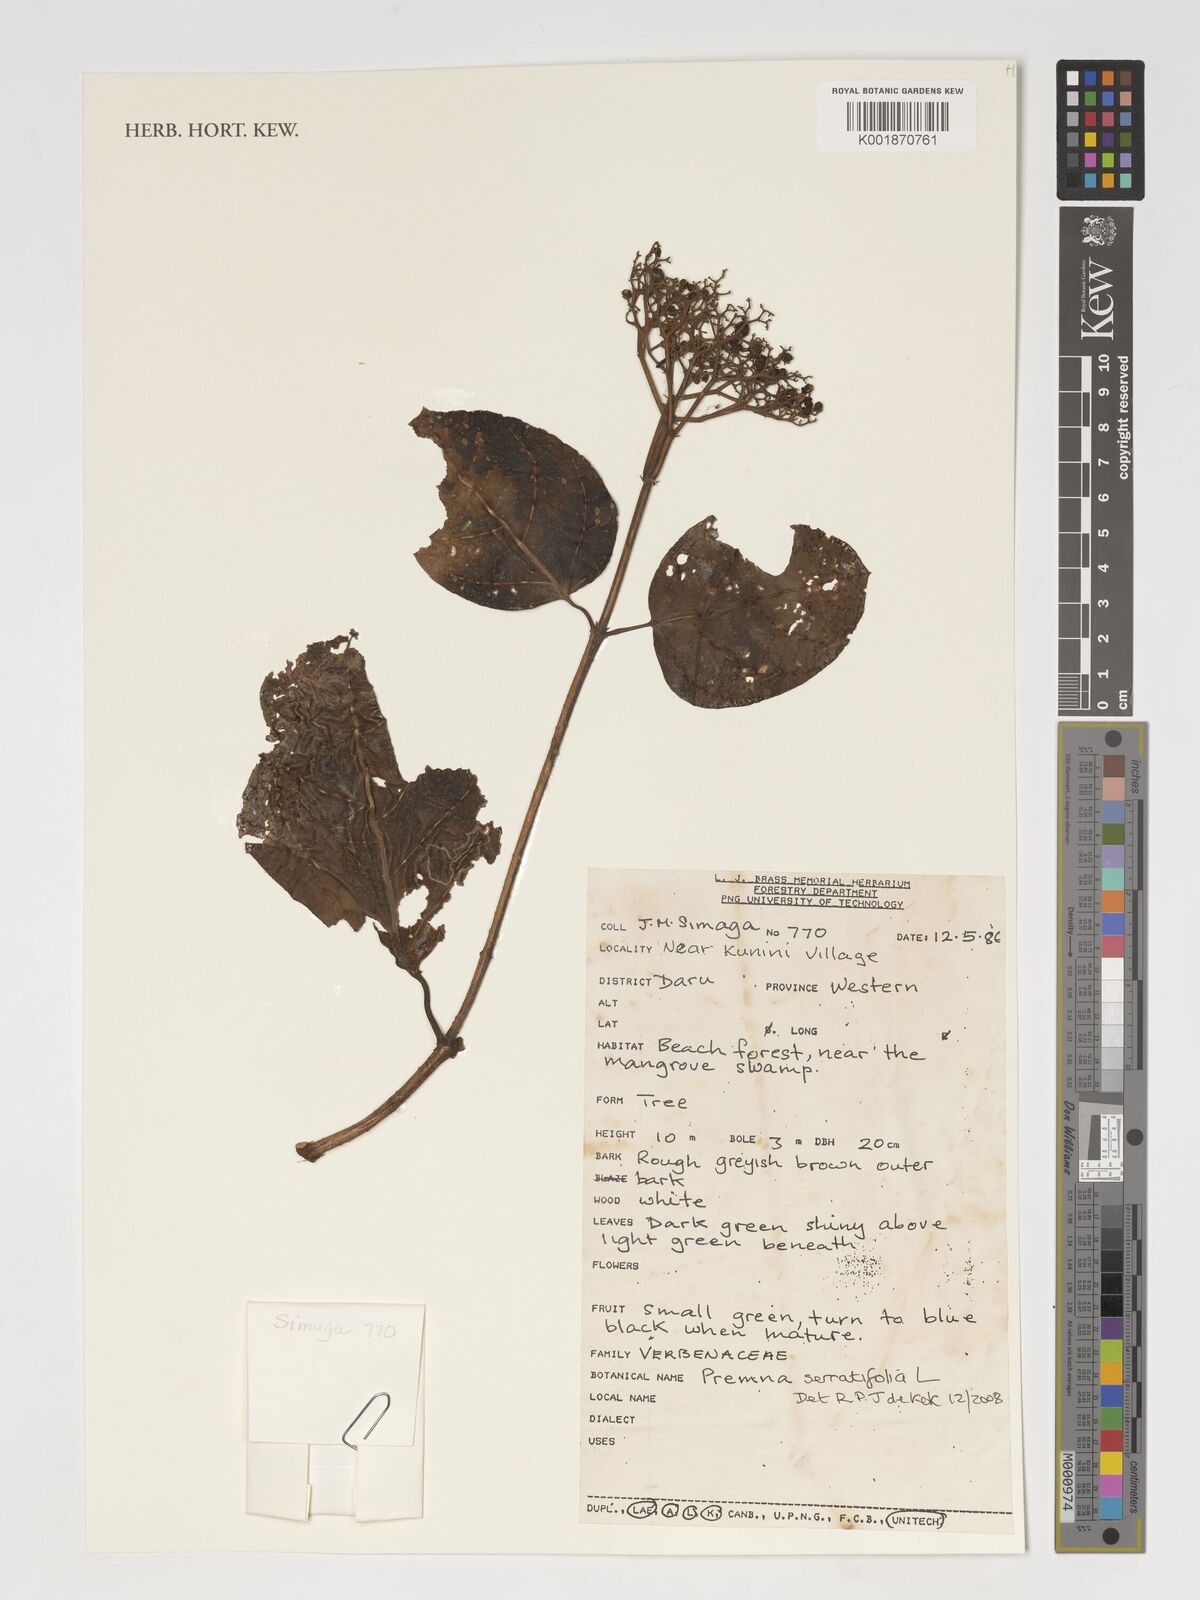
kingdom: Plantae
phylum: Tracheophyta
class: Magnoliopsida
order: Lamiales
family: Lamiaceae
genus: Premna
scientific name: Premna serratifolia
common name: Bastard guelder
